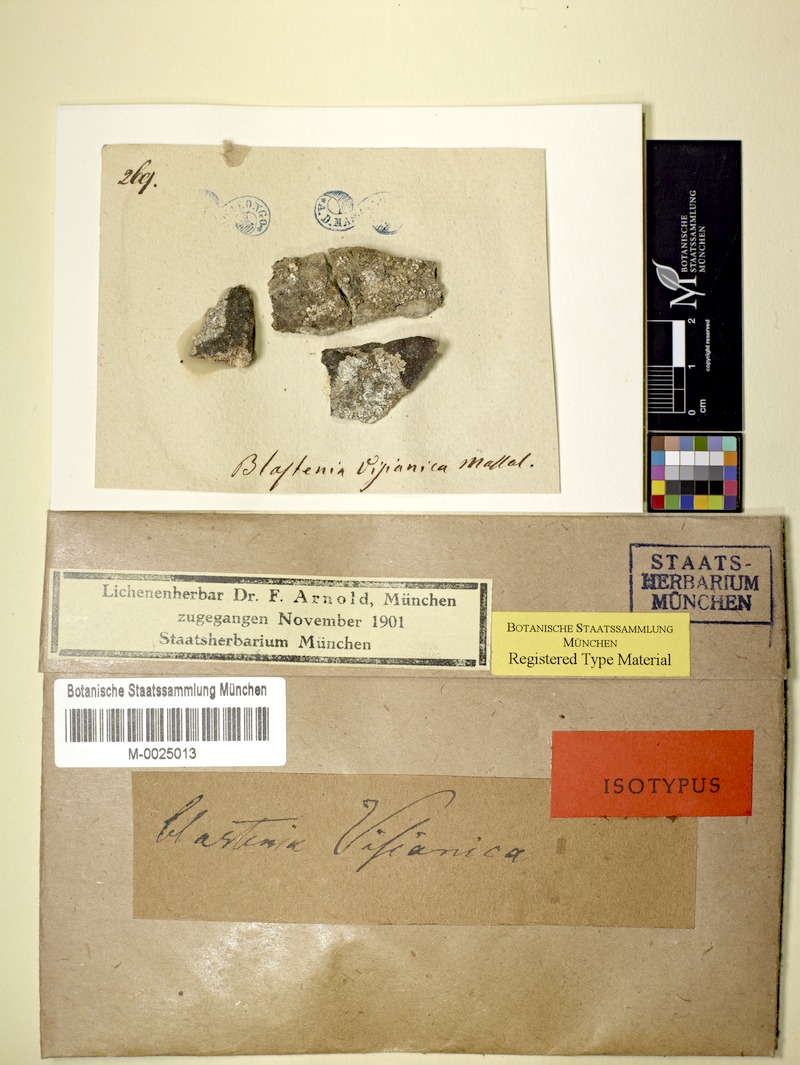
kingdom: Fungi
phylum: Ascomycota
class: Lecanoromycetes
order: Teloschistales
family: Teloschistaceae
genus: Kuettlingeria
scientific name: Kuettlingeria teicholyta
